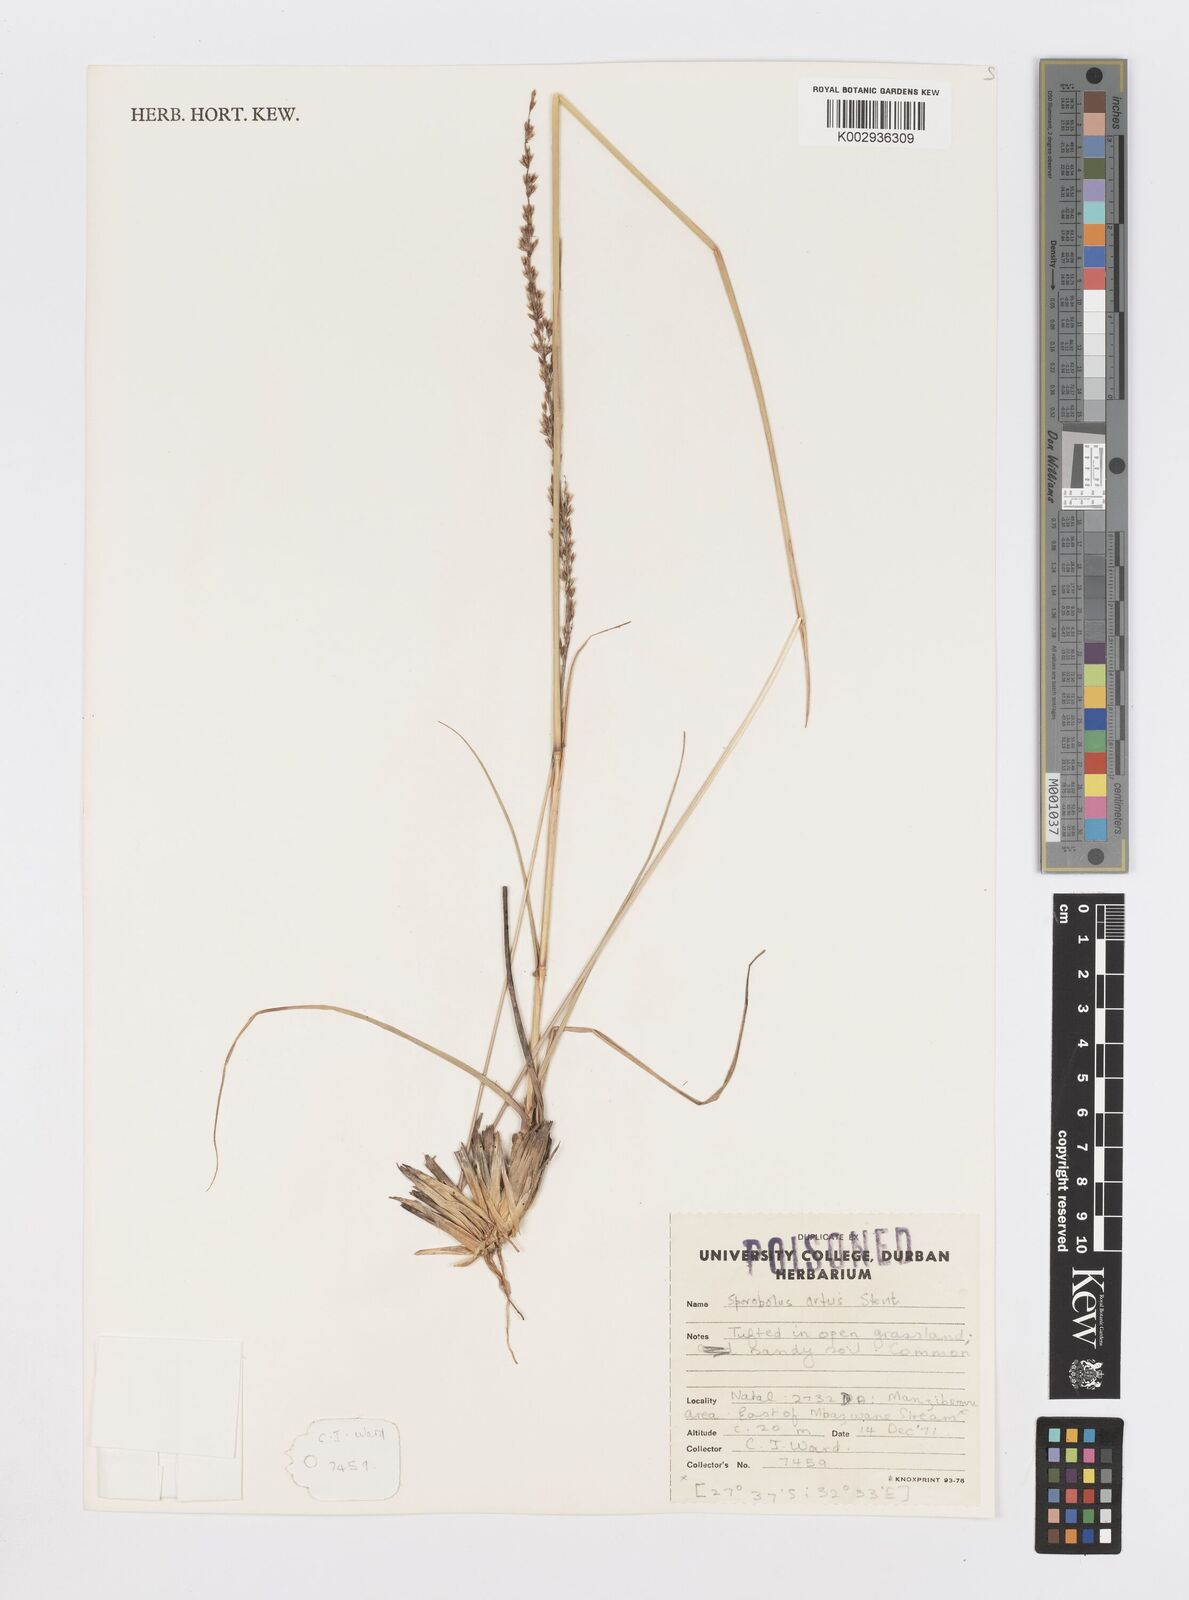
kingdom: Plantae
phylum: Tracheophyta
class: Liliopsida
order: Poales
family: Poaceae
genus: Sporobolus
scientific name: Sporobolus subulatus
